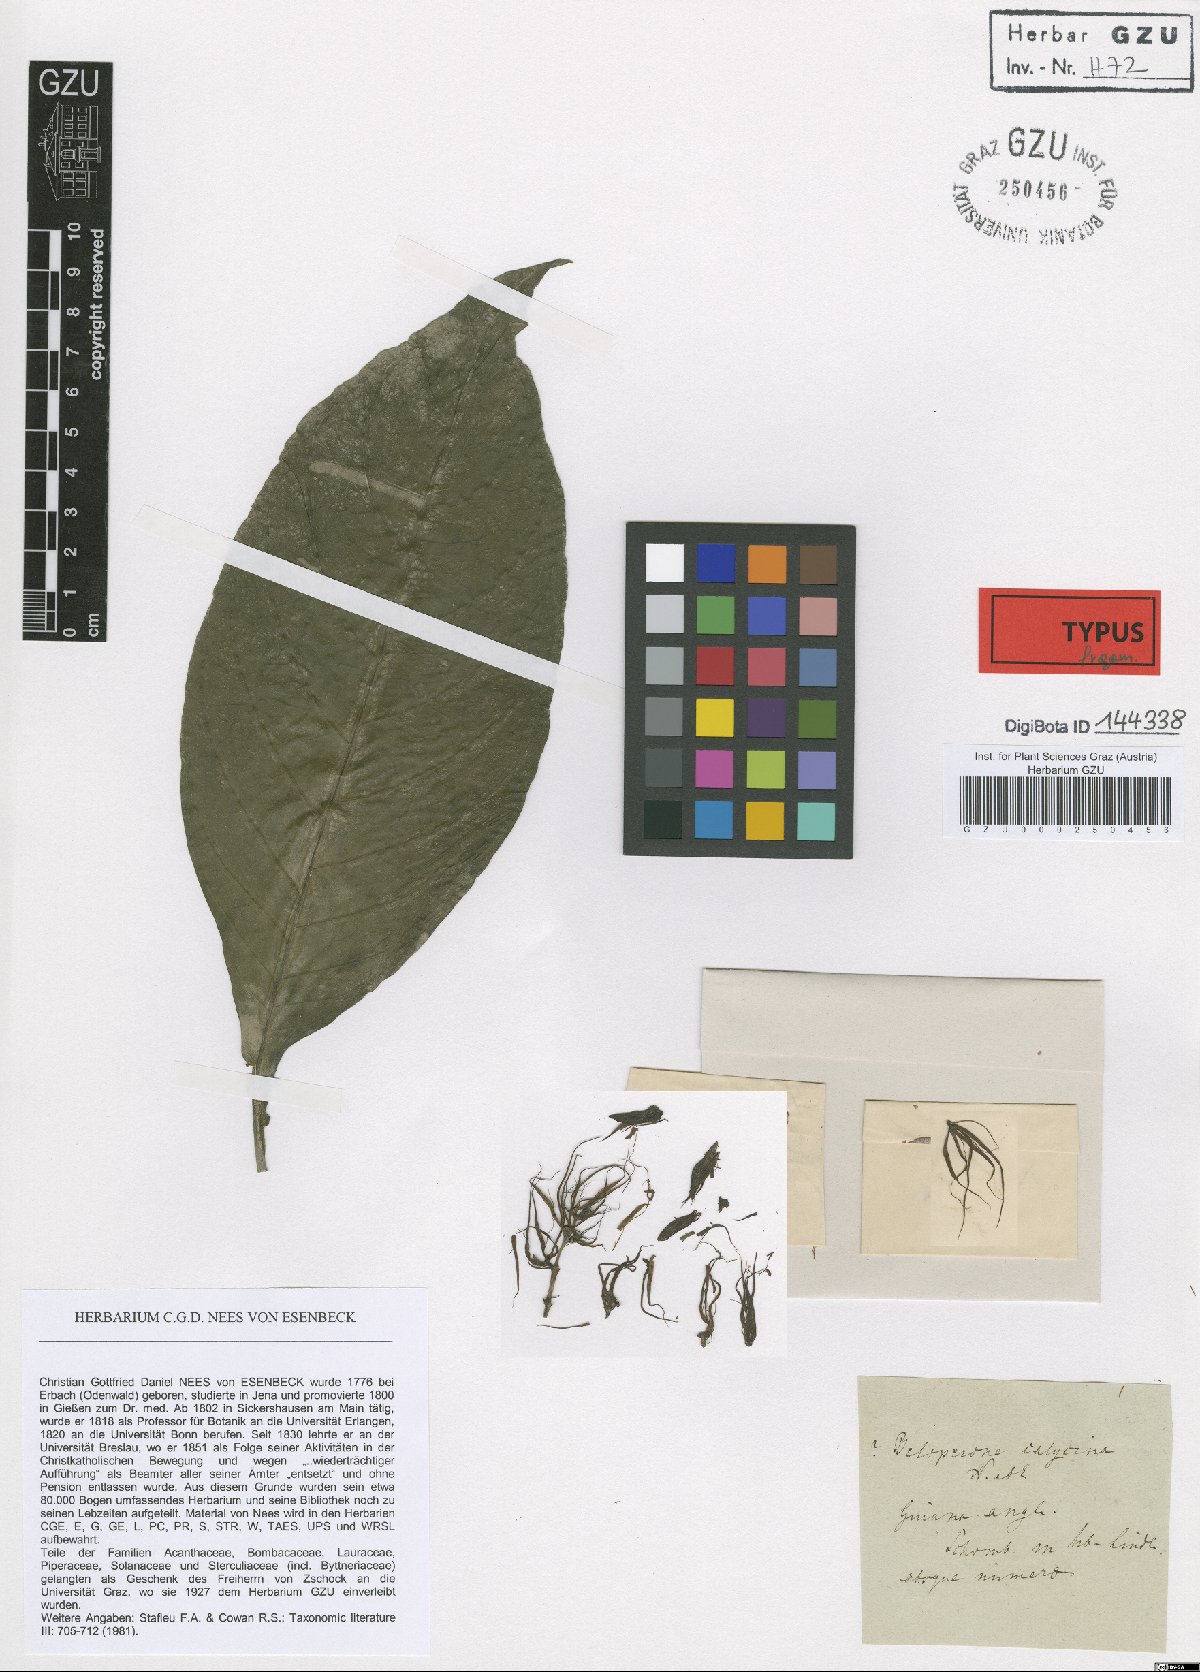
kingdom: Plantae
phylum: Tracheophyta
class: Magnoliopsida
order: Lamiales
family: Acanthaceae
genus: Dianthera
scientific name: Dianthera calycina
